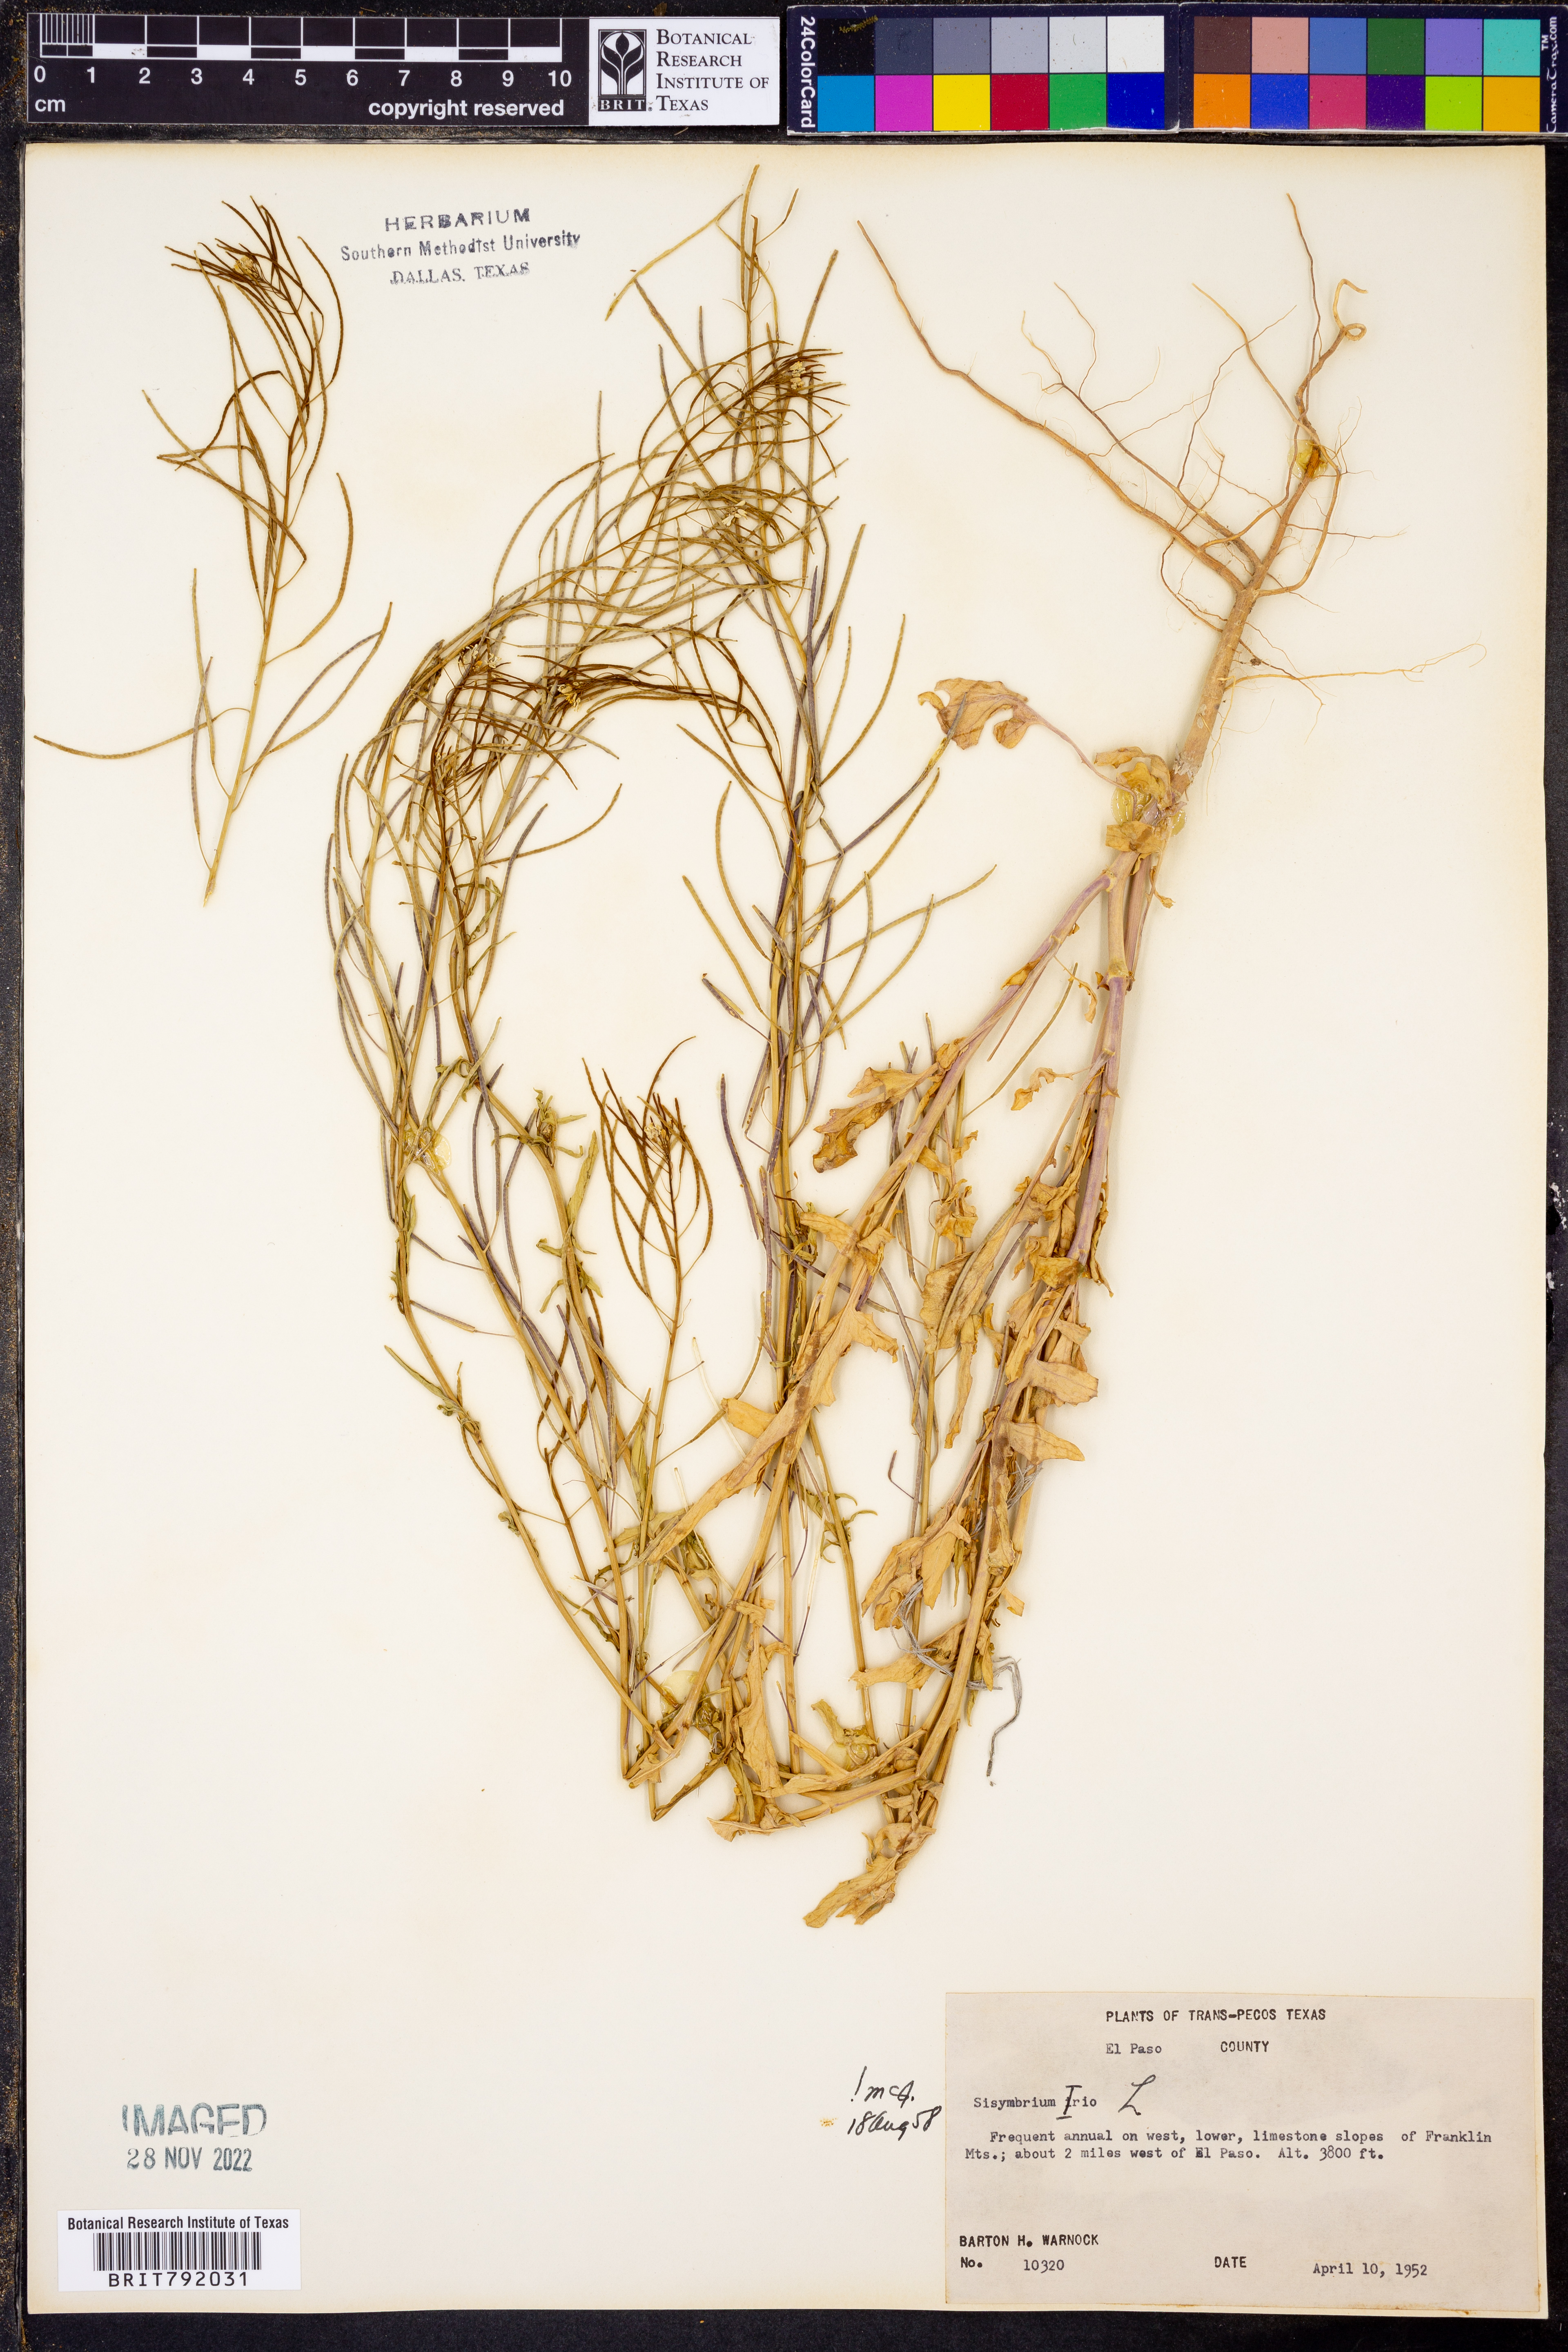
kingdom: Plantae
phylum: Tracheophyta
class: Magnoliopsida
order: Brassicales
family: Brassicaceae
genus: Sisymbrium
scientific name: Sisymbrium irio
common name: London rocket
